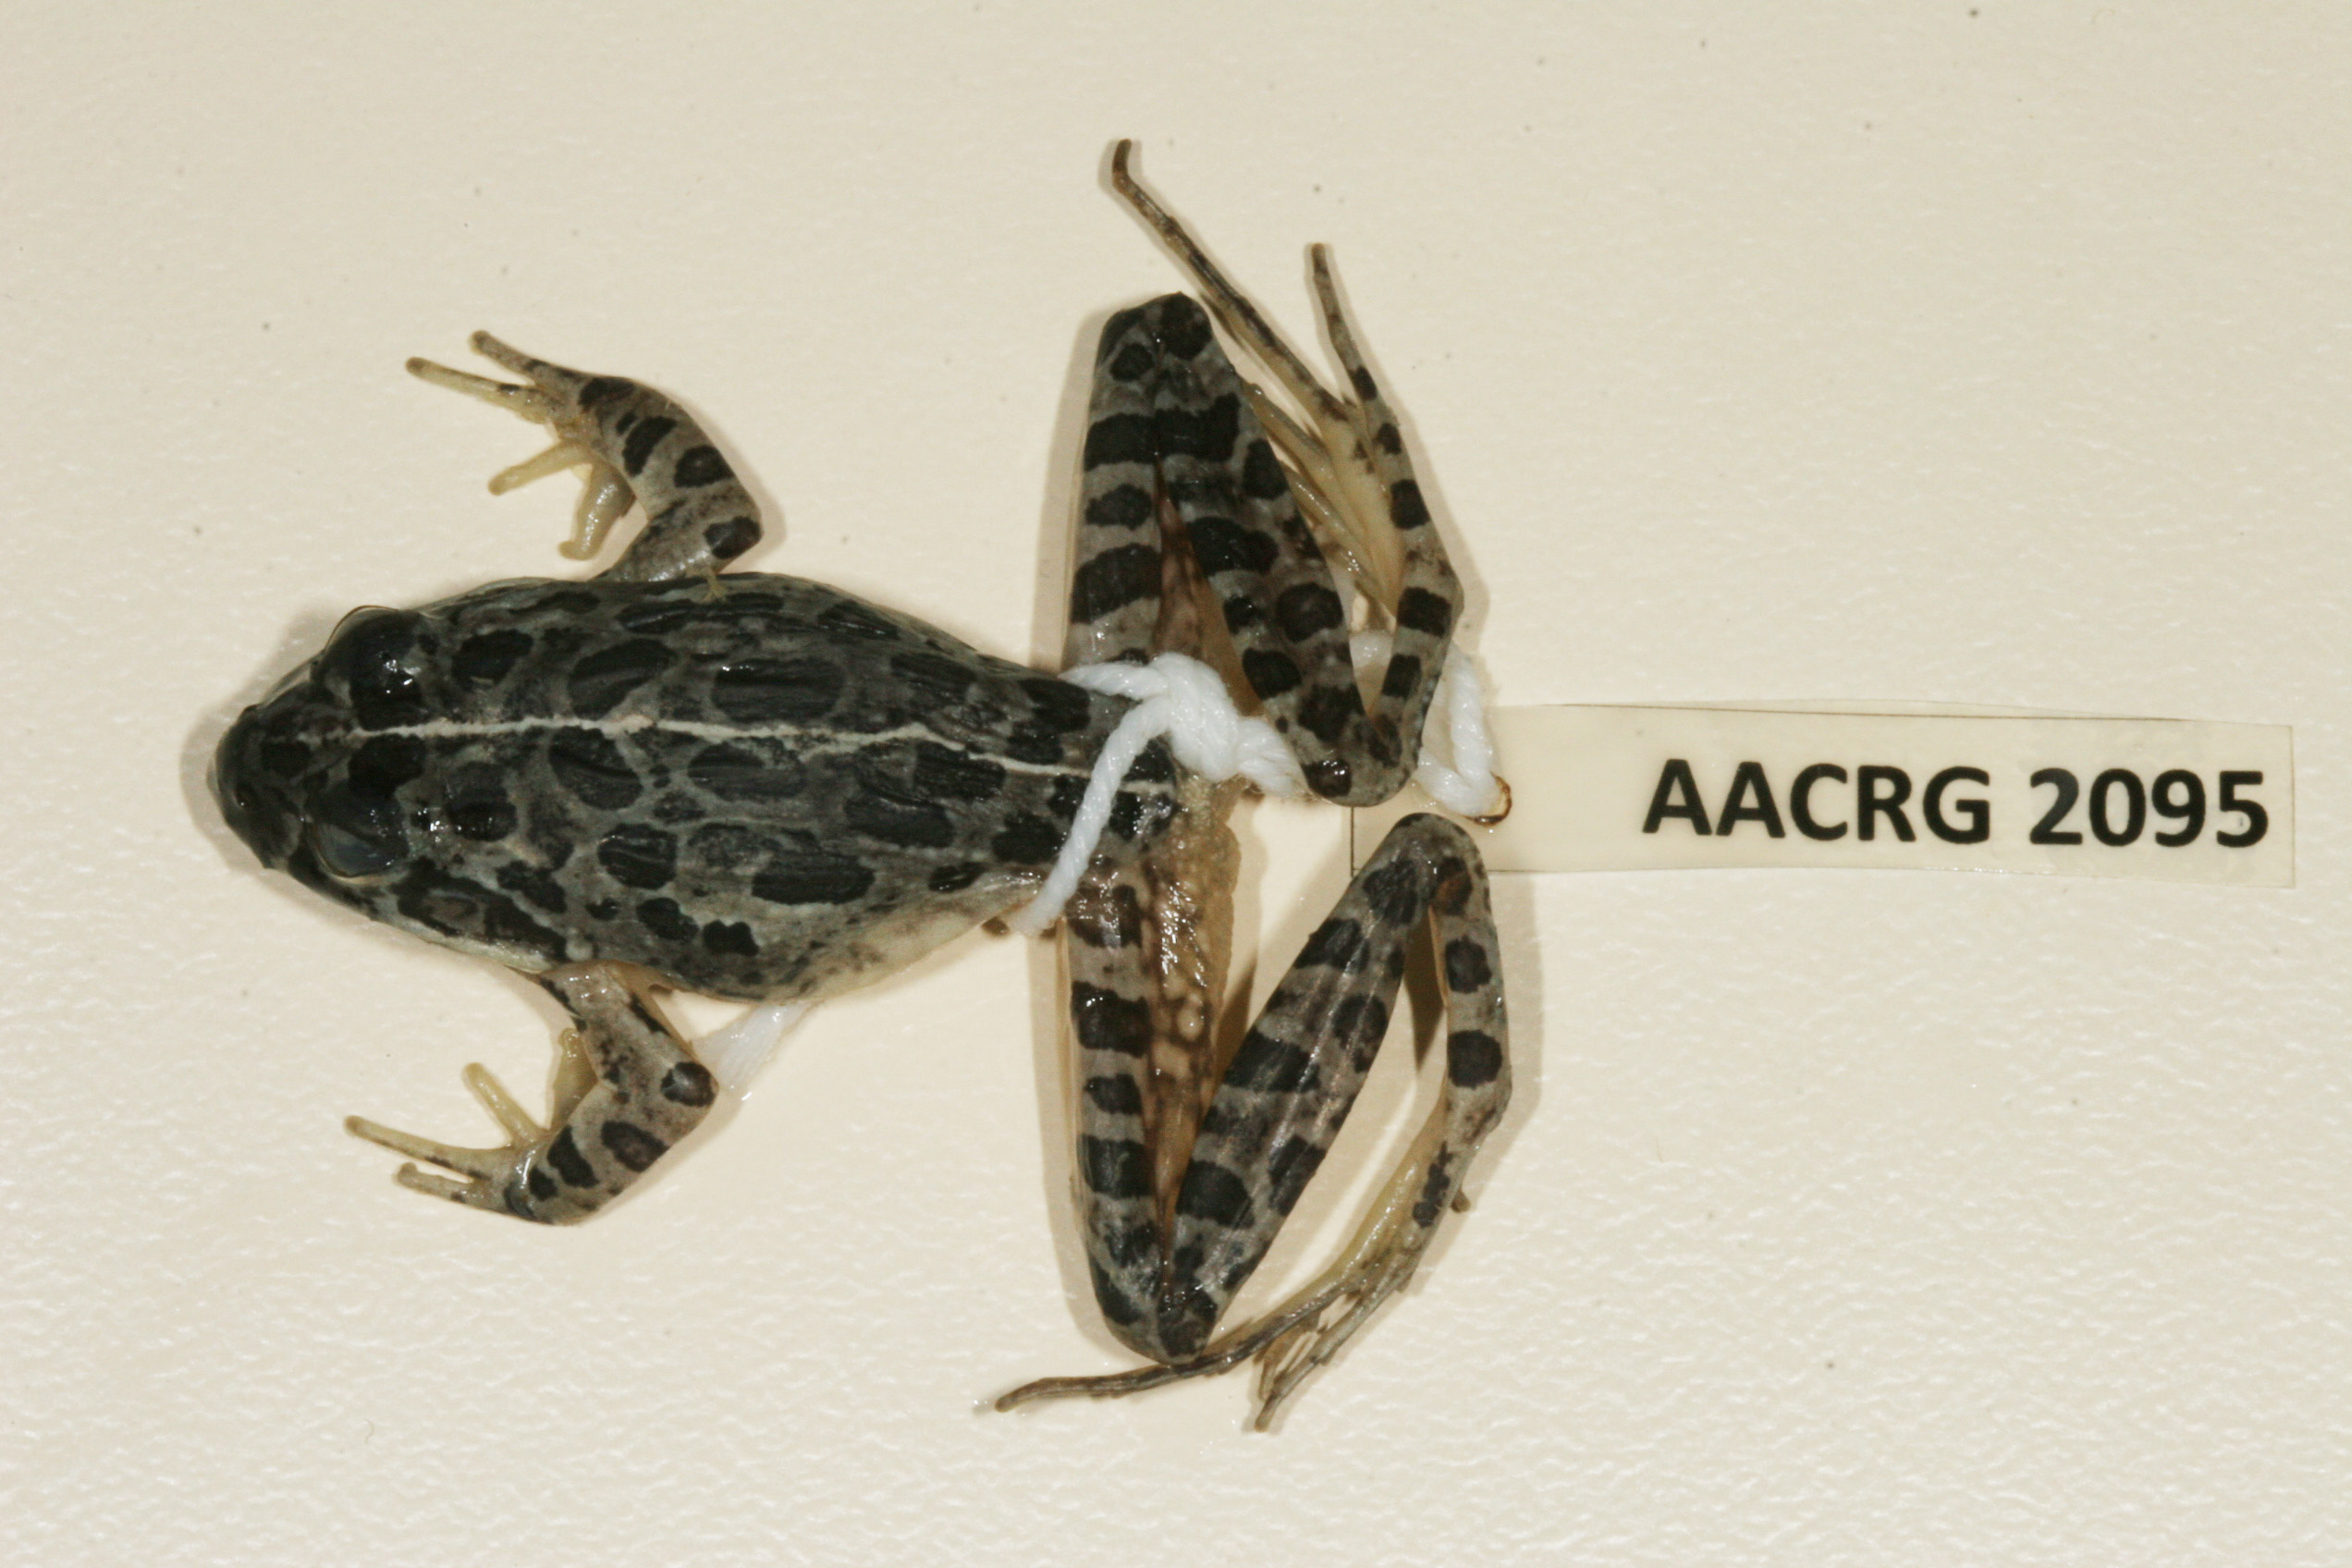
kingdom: Animalia
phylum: Chordata
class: Amphibia
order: Anura
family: Pyxicephalidae
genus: Strongylopus
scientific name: Strongylopus grayii
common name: Gray's stream frog
